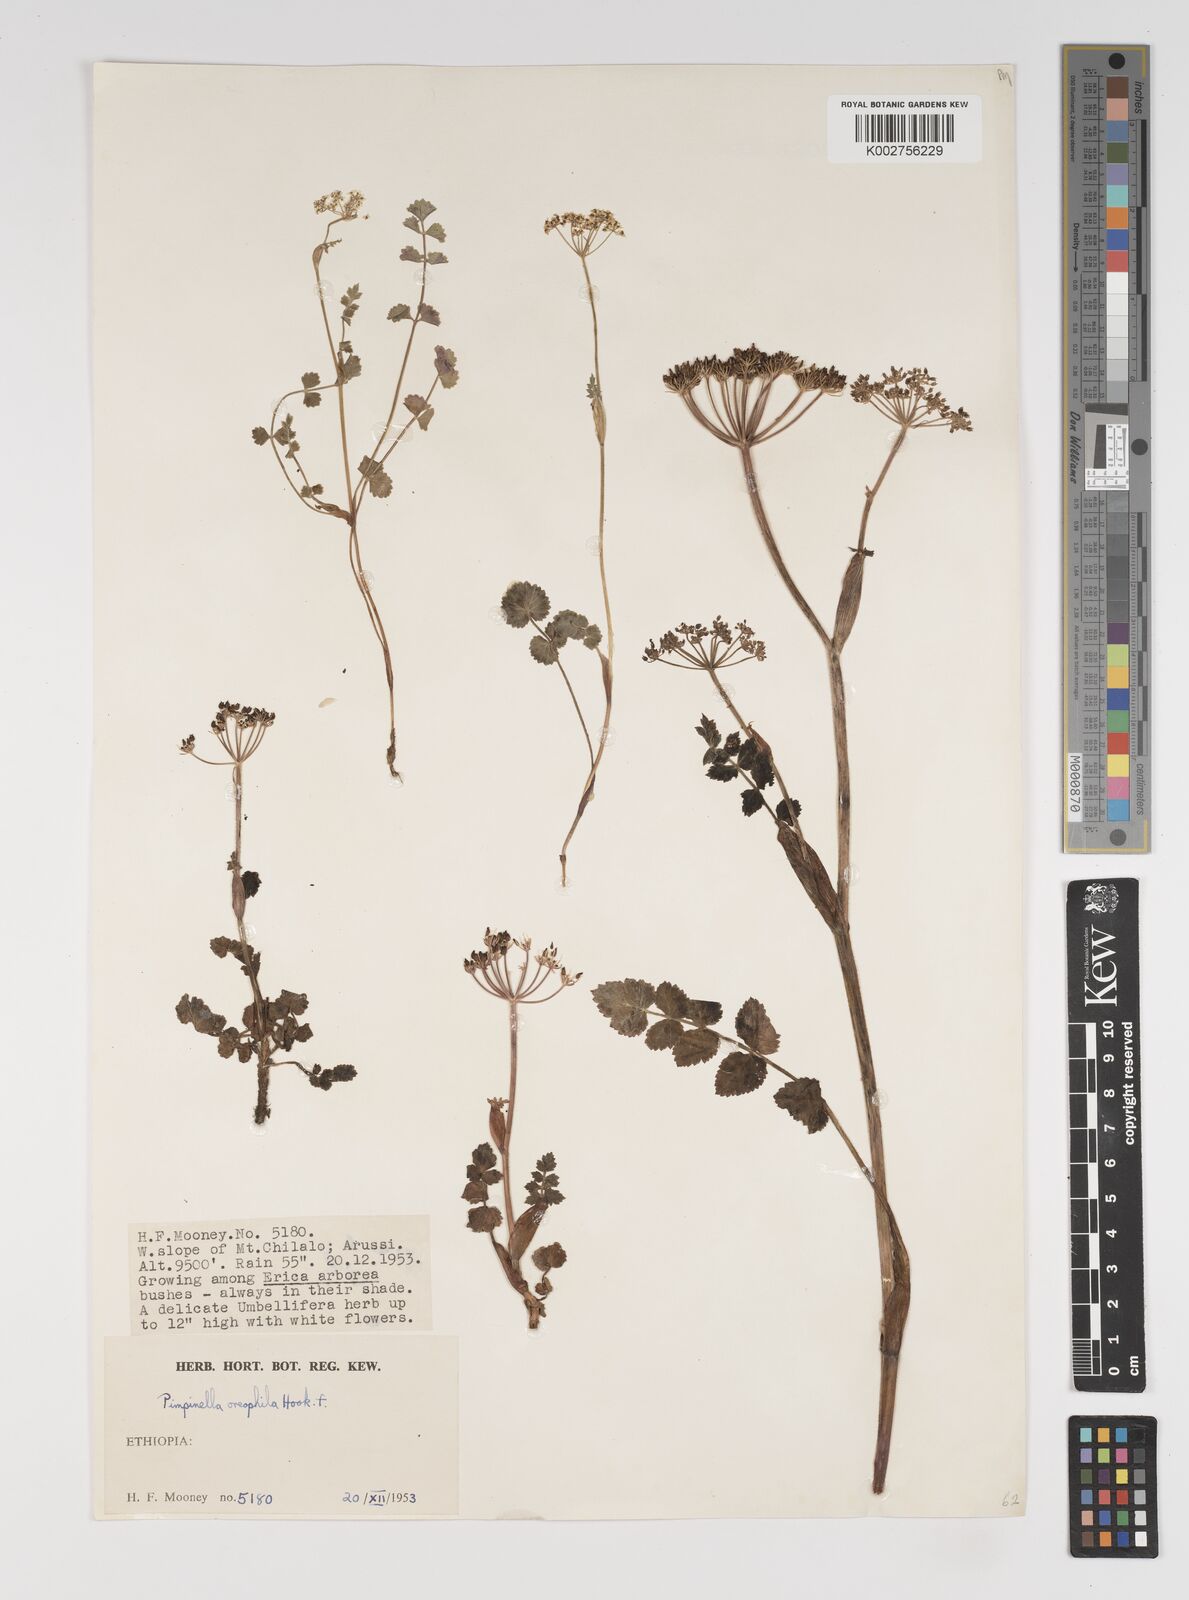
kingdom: Plantae
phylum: Tracheophyta
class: Magnoliopsida
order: Apiales
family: Apiaceae
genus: Pimpinella
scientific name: Pimpinella oreophila
